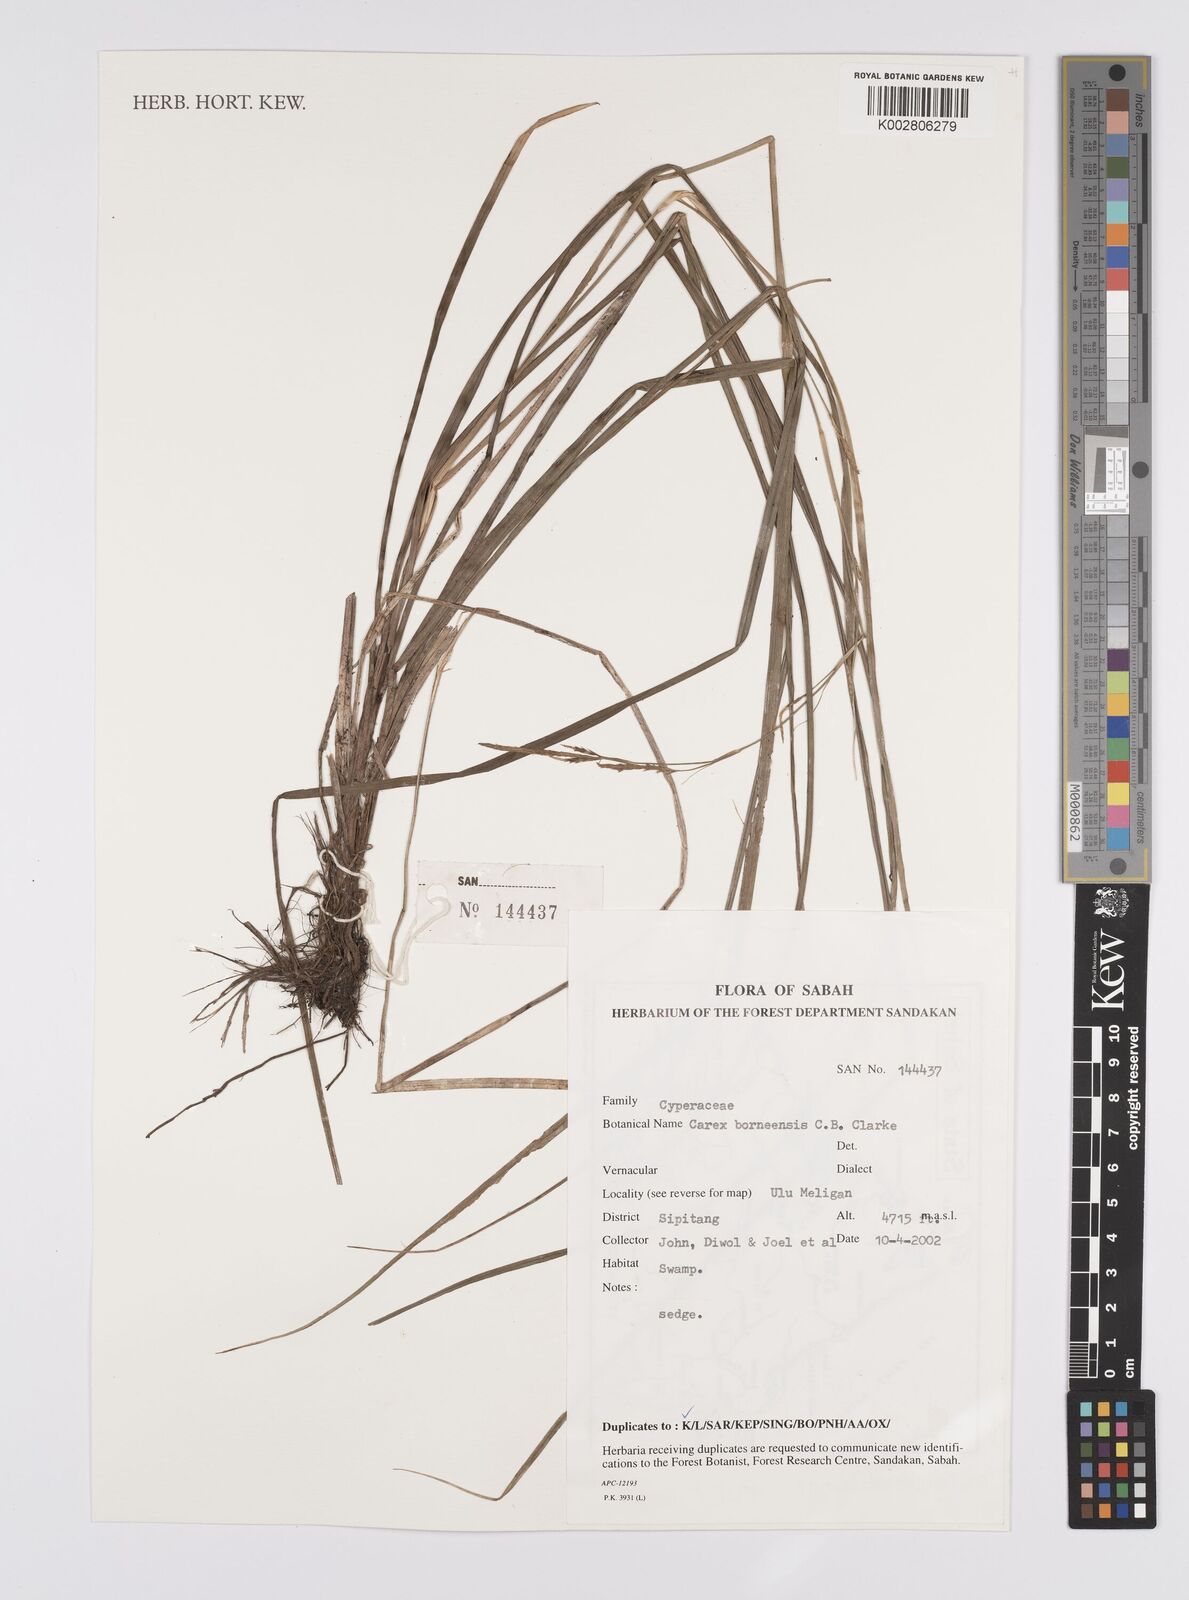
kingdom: Plantae
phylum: Tracheophyta
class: Liliopsida
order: Poales
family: Cyperaceae
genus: Carex
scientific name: Carex perakensis
